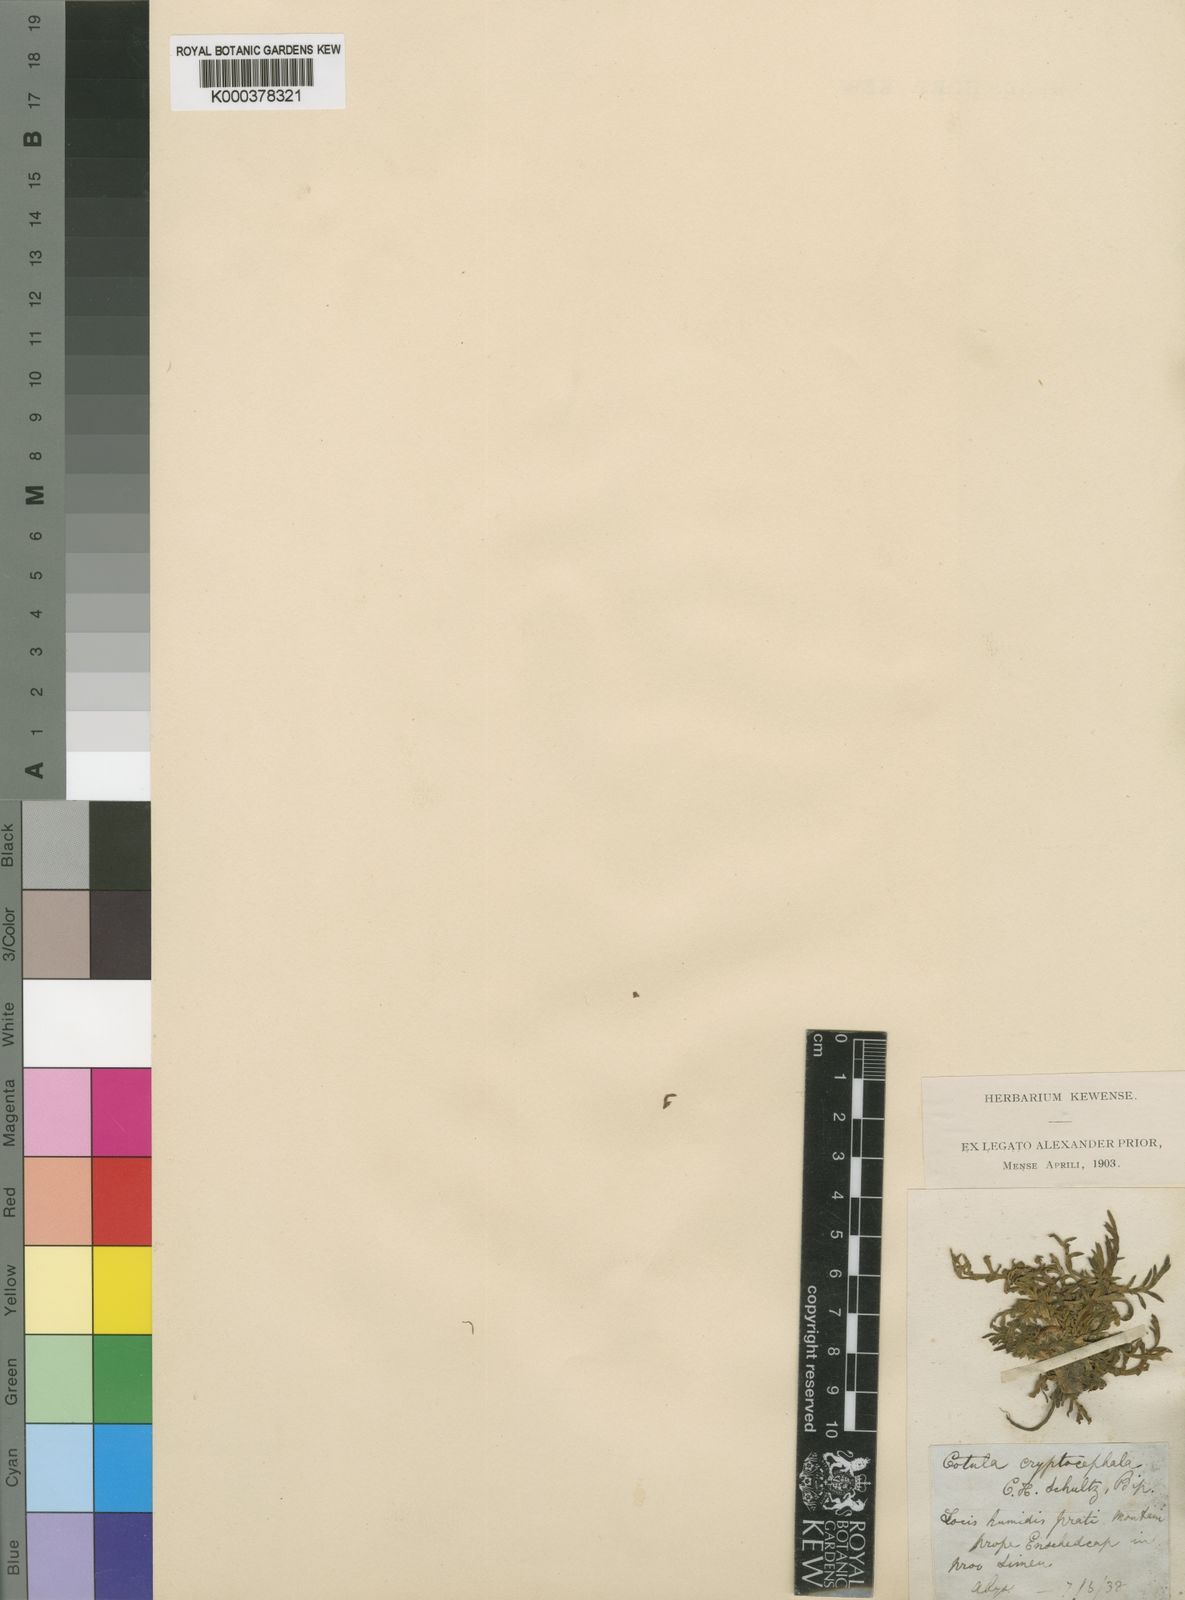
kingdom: Plantae
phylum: Tracheophyta
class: Magnoliopsida
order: Asterales
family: Asteraceae
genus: Cotula
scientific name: Cotula cryptocephala
